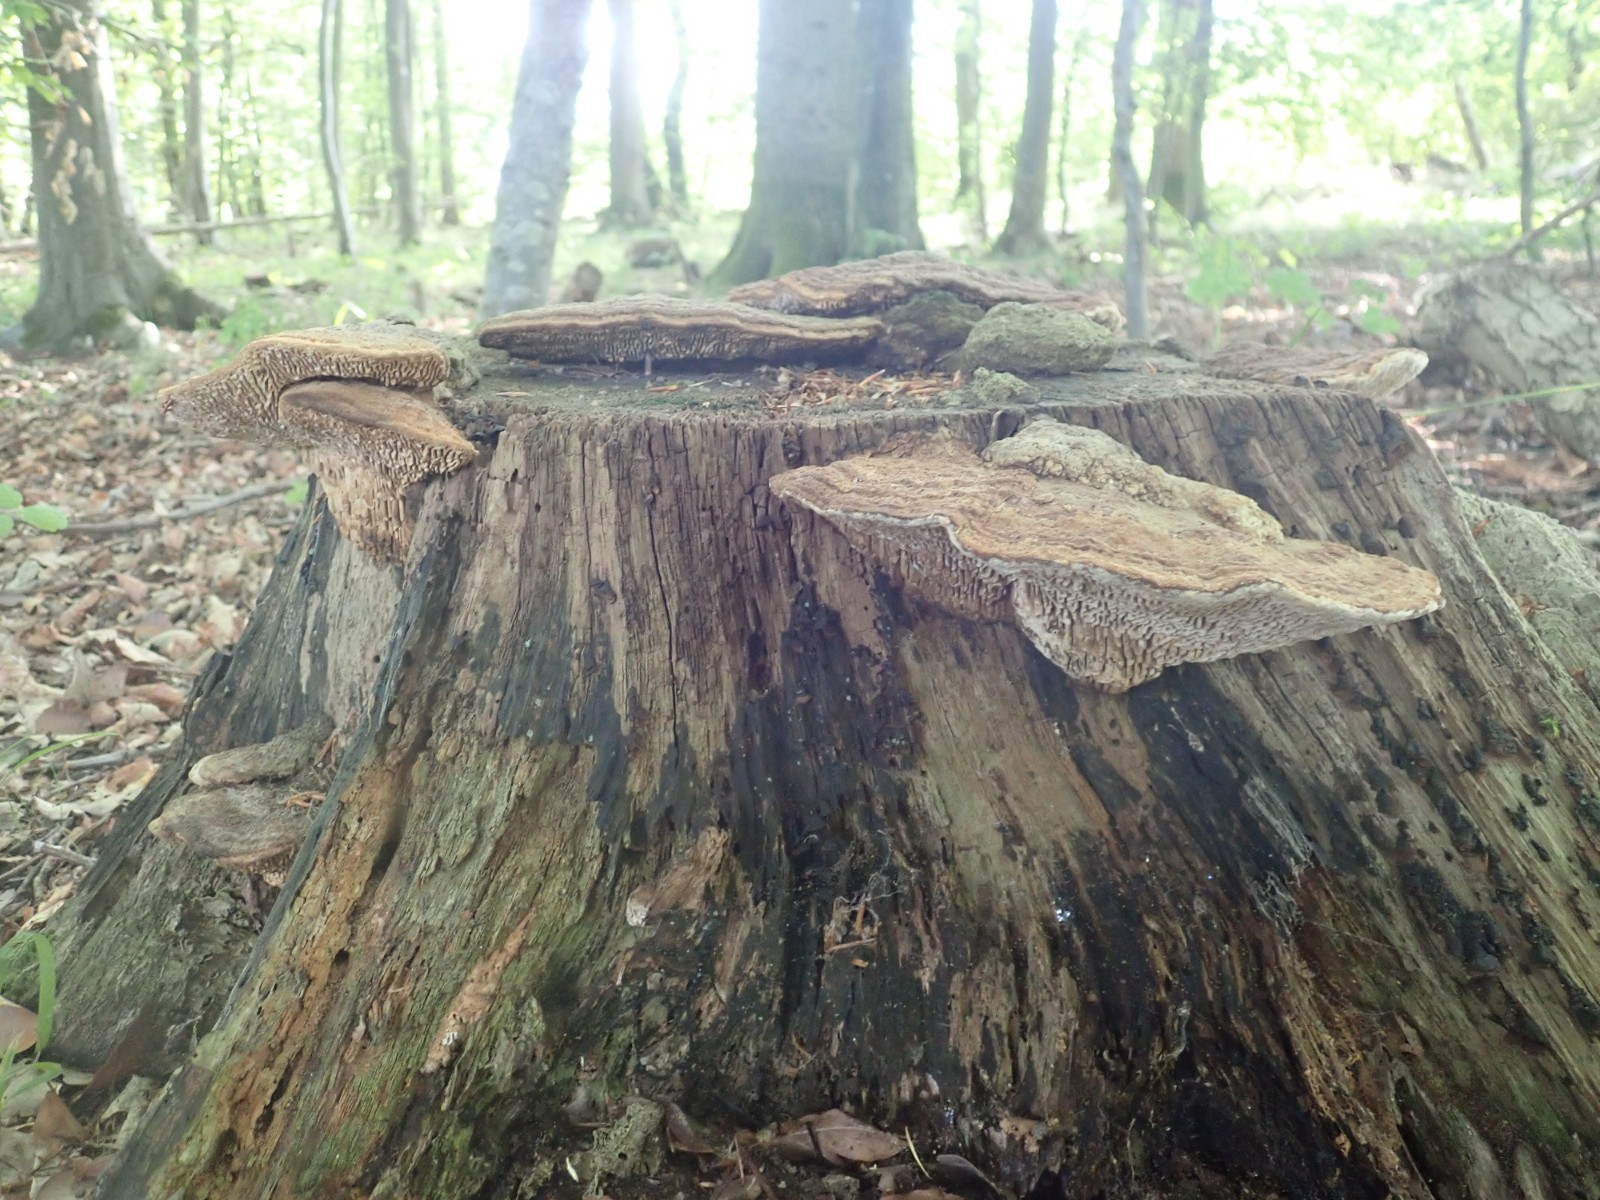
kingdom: Fungi
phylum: Basidiomycota
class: Agaricomycetes
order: Polyporales
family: Fomitopsidaceae
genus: Daedalea
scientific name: Daedalea quercina
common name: ege-labyrintsvamp
